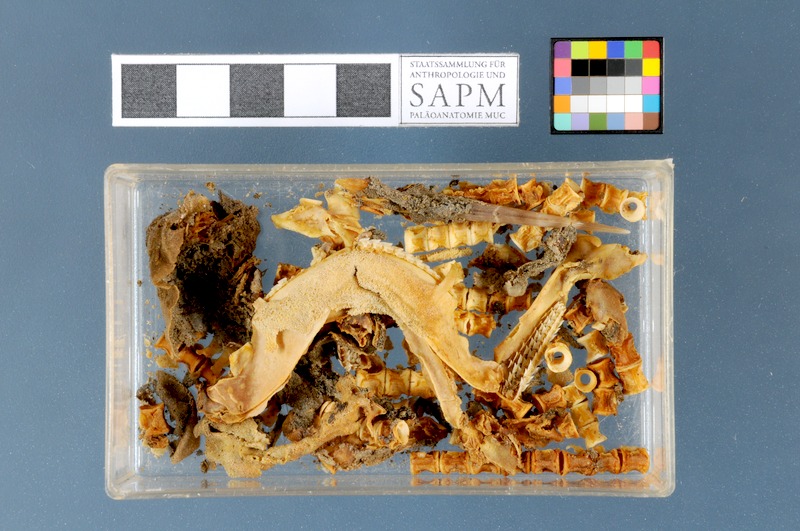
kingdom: Animalia
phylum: Chordata
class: Elasmobranchii
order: Squaliformes
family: Squalidae
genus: Squalus
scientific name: Squalus acanthias
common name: Spurdog
